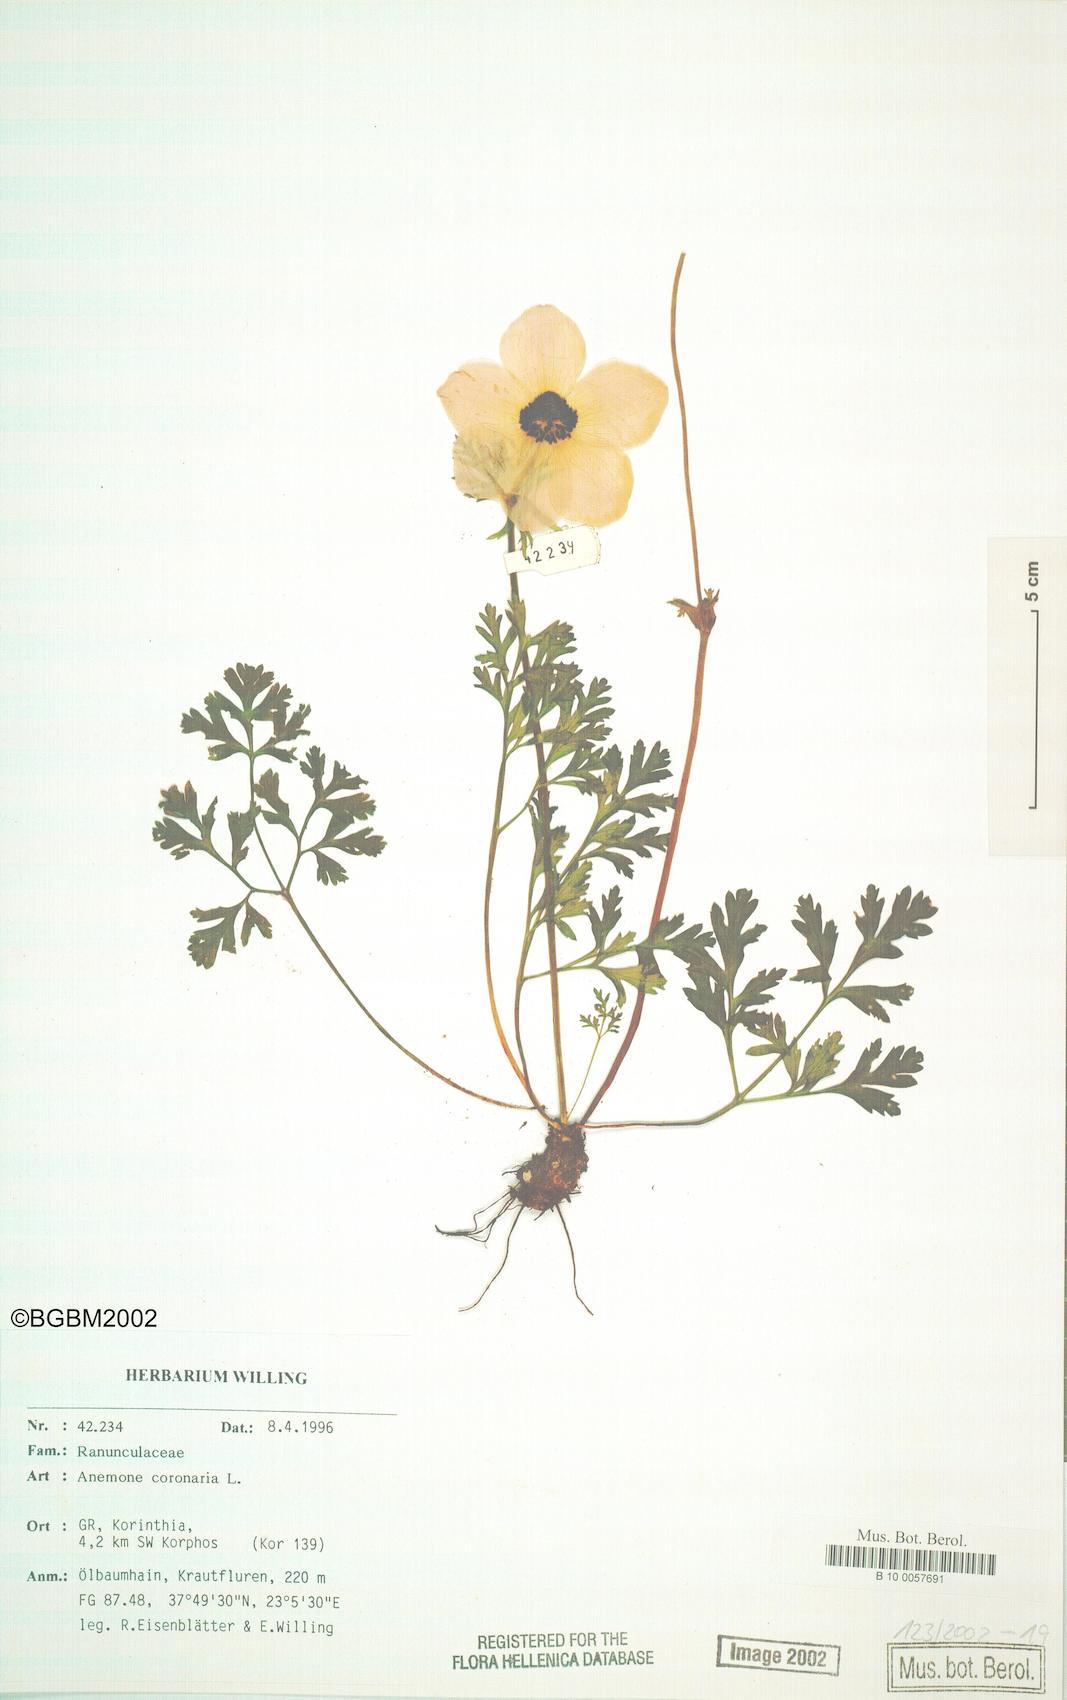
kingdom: Plantae
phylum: Tracheophyta
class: Magnoliopsida
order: Ranunculales
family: Ranunculaceae
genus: Anemone
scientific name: Anemone coronaria
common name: Poppy anemone
